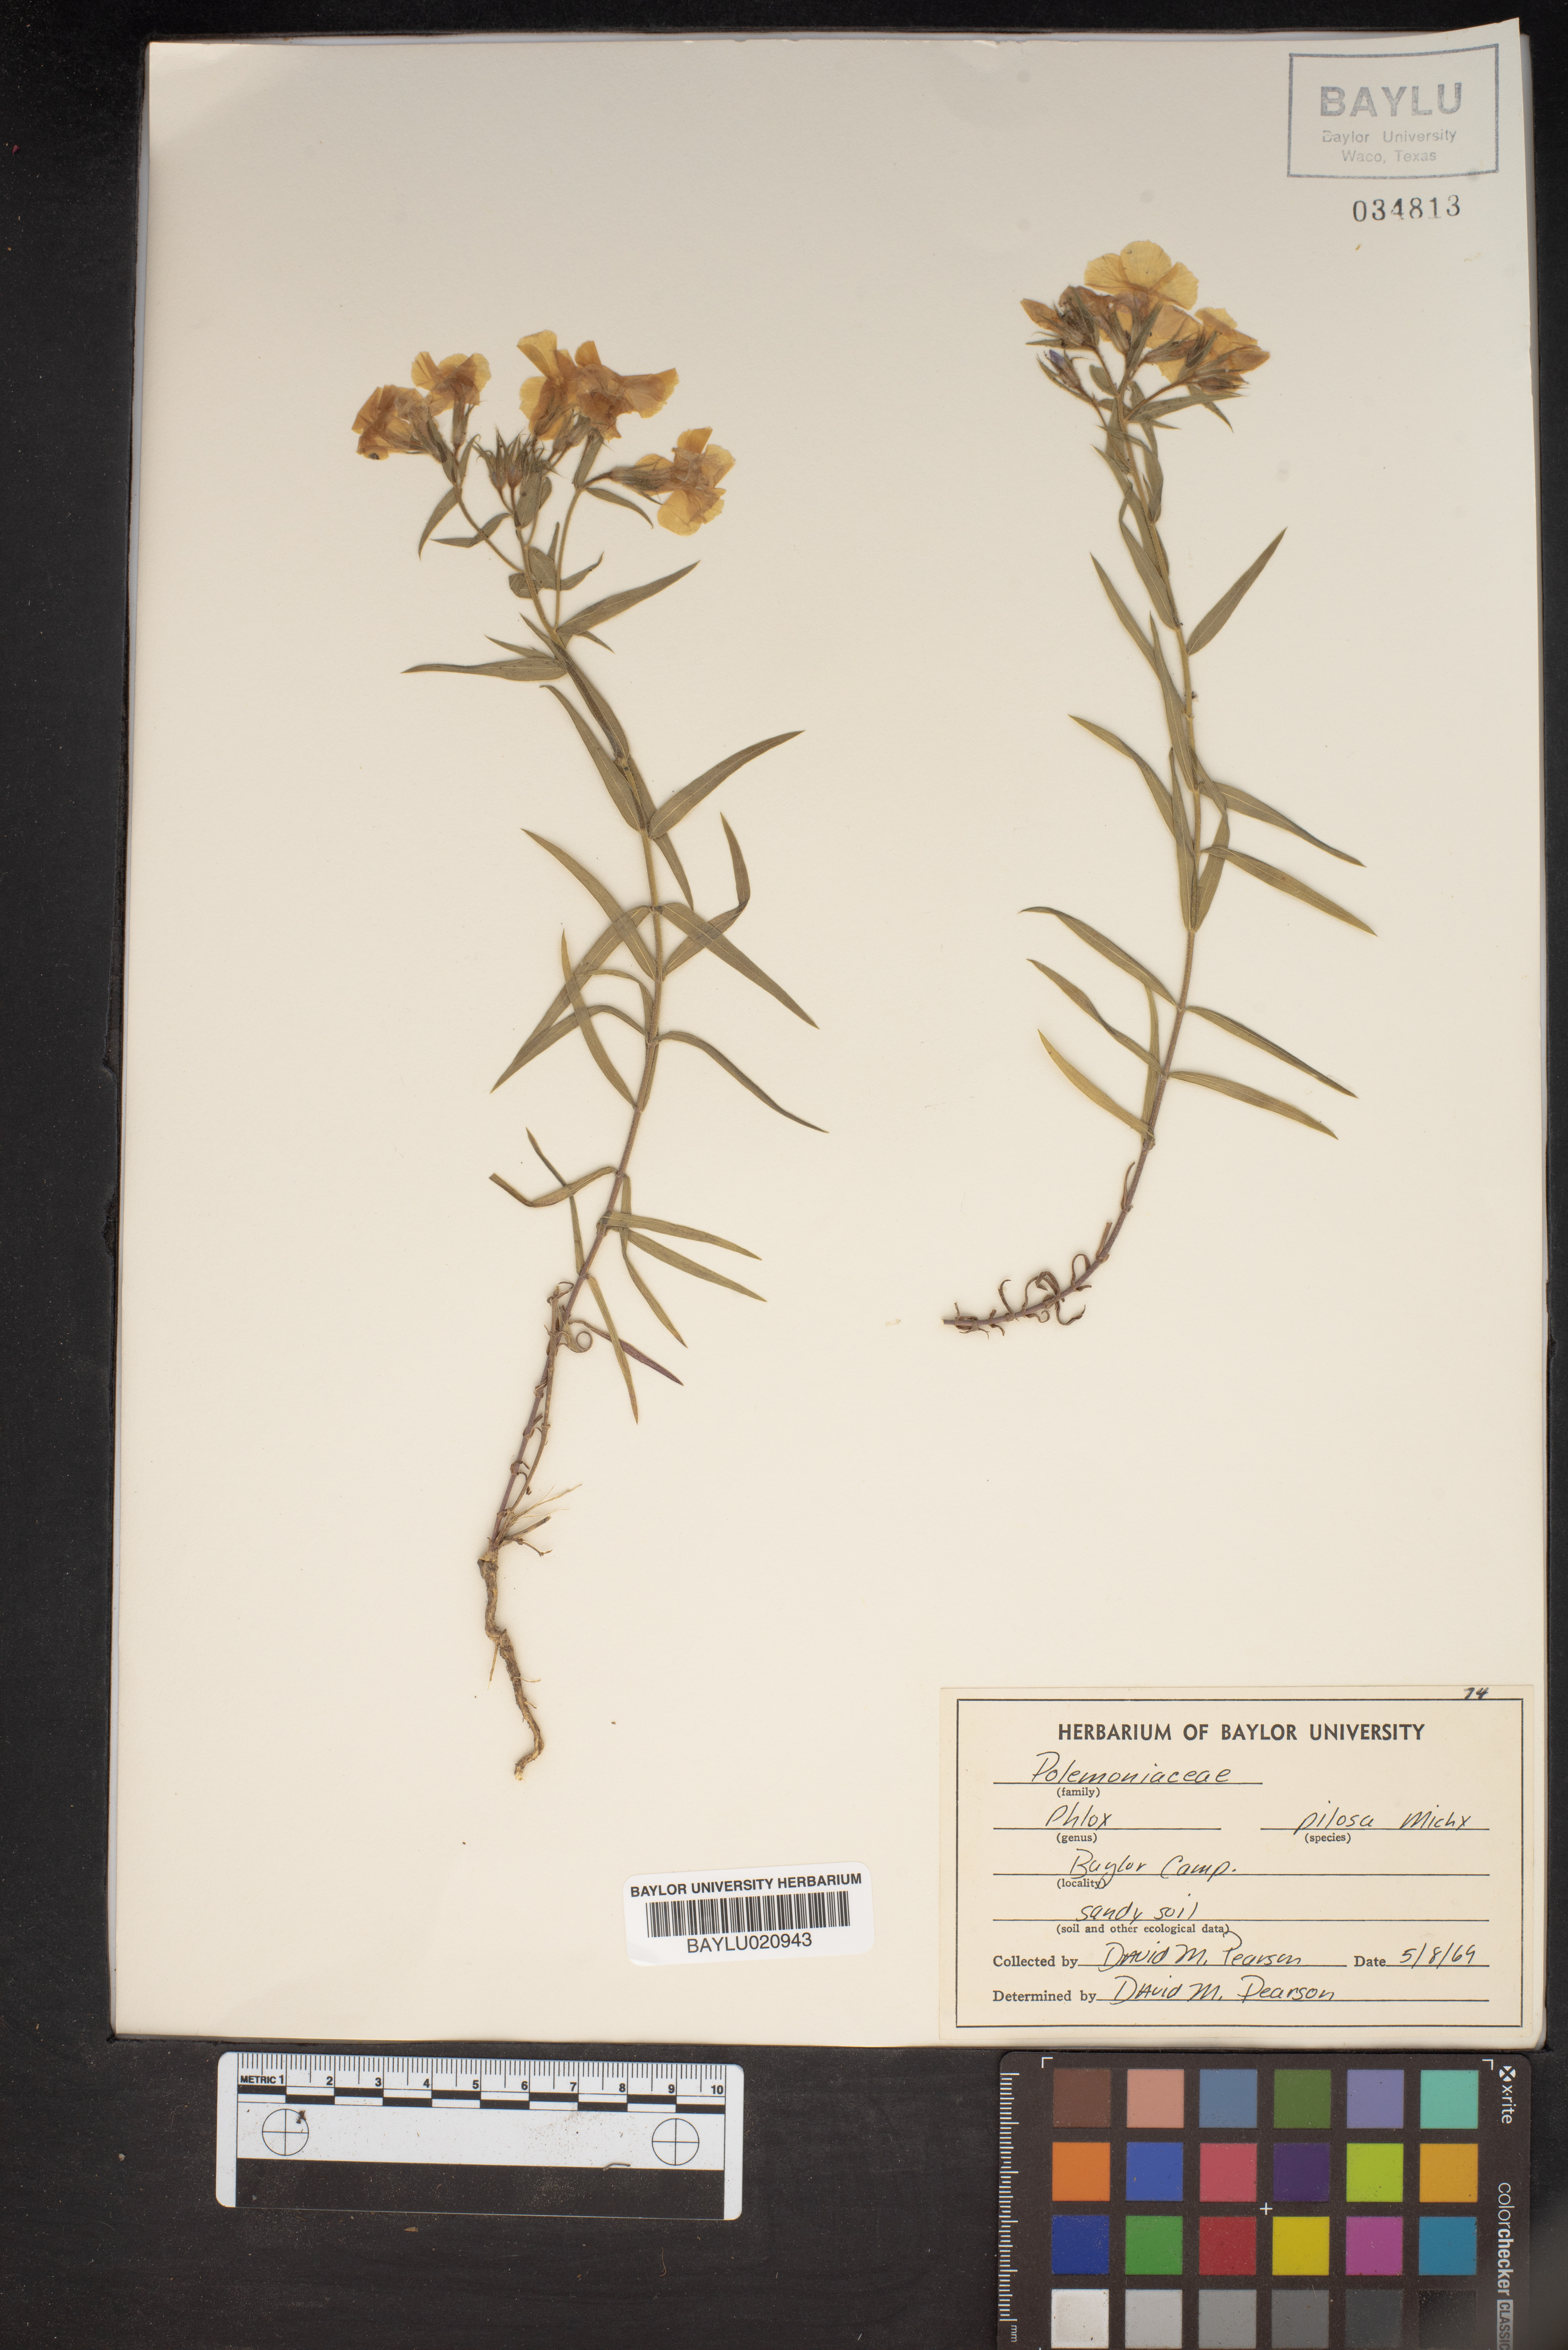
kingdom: Plantae
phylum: Tracheophyta
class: Magnoliopsida
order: Ericales
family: Polemoniaceae
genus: Phlox
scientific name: Phlox pilosa
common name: Prairie phlox
